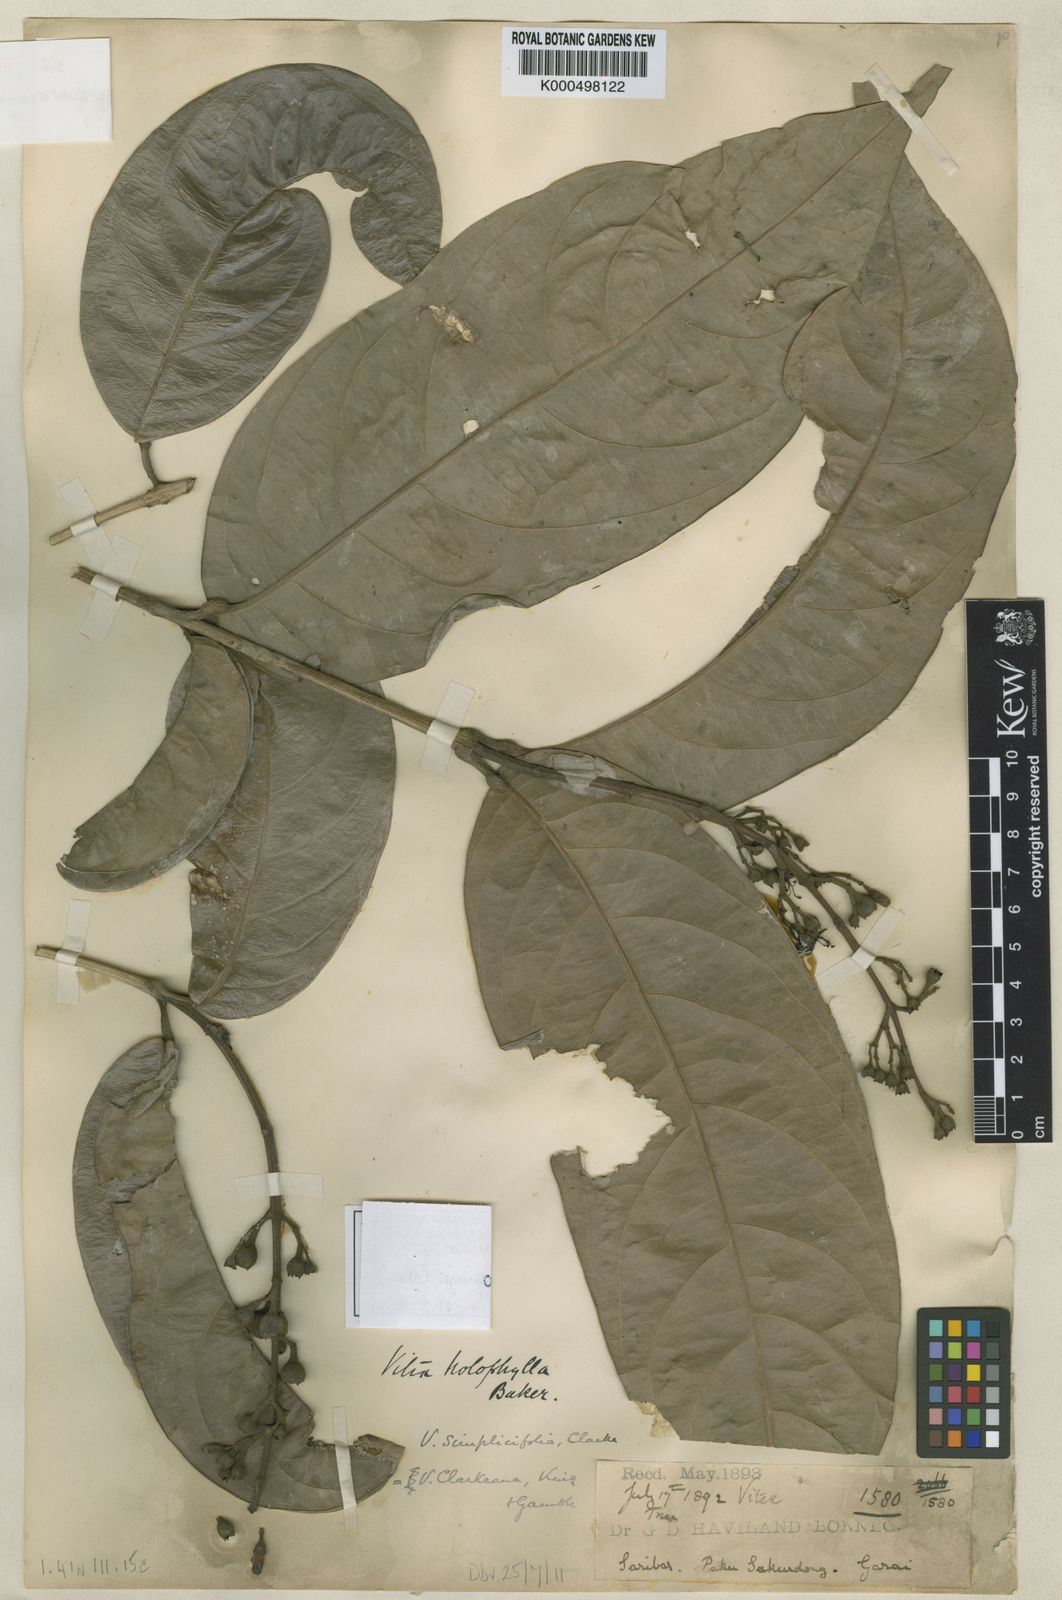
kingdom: Plantae
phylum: Tracheophyta
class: Magnoliopsida
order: Lamiales
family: Lamiaceae
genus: Teijsmanniodendron
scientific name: Teijsmanniodendron hollrungii
